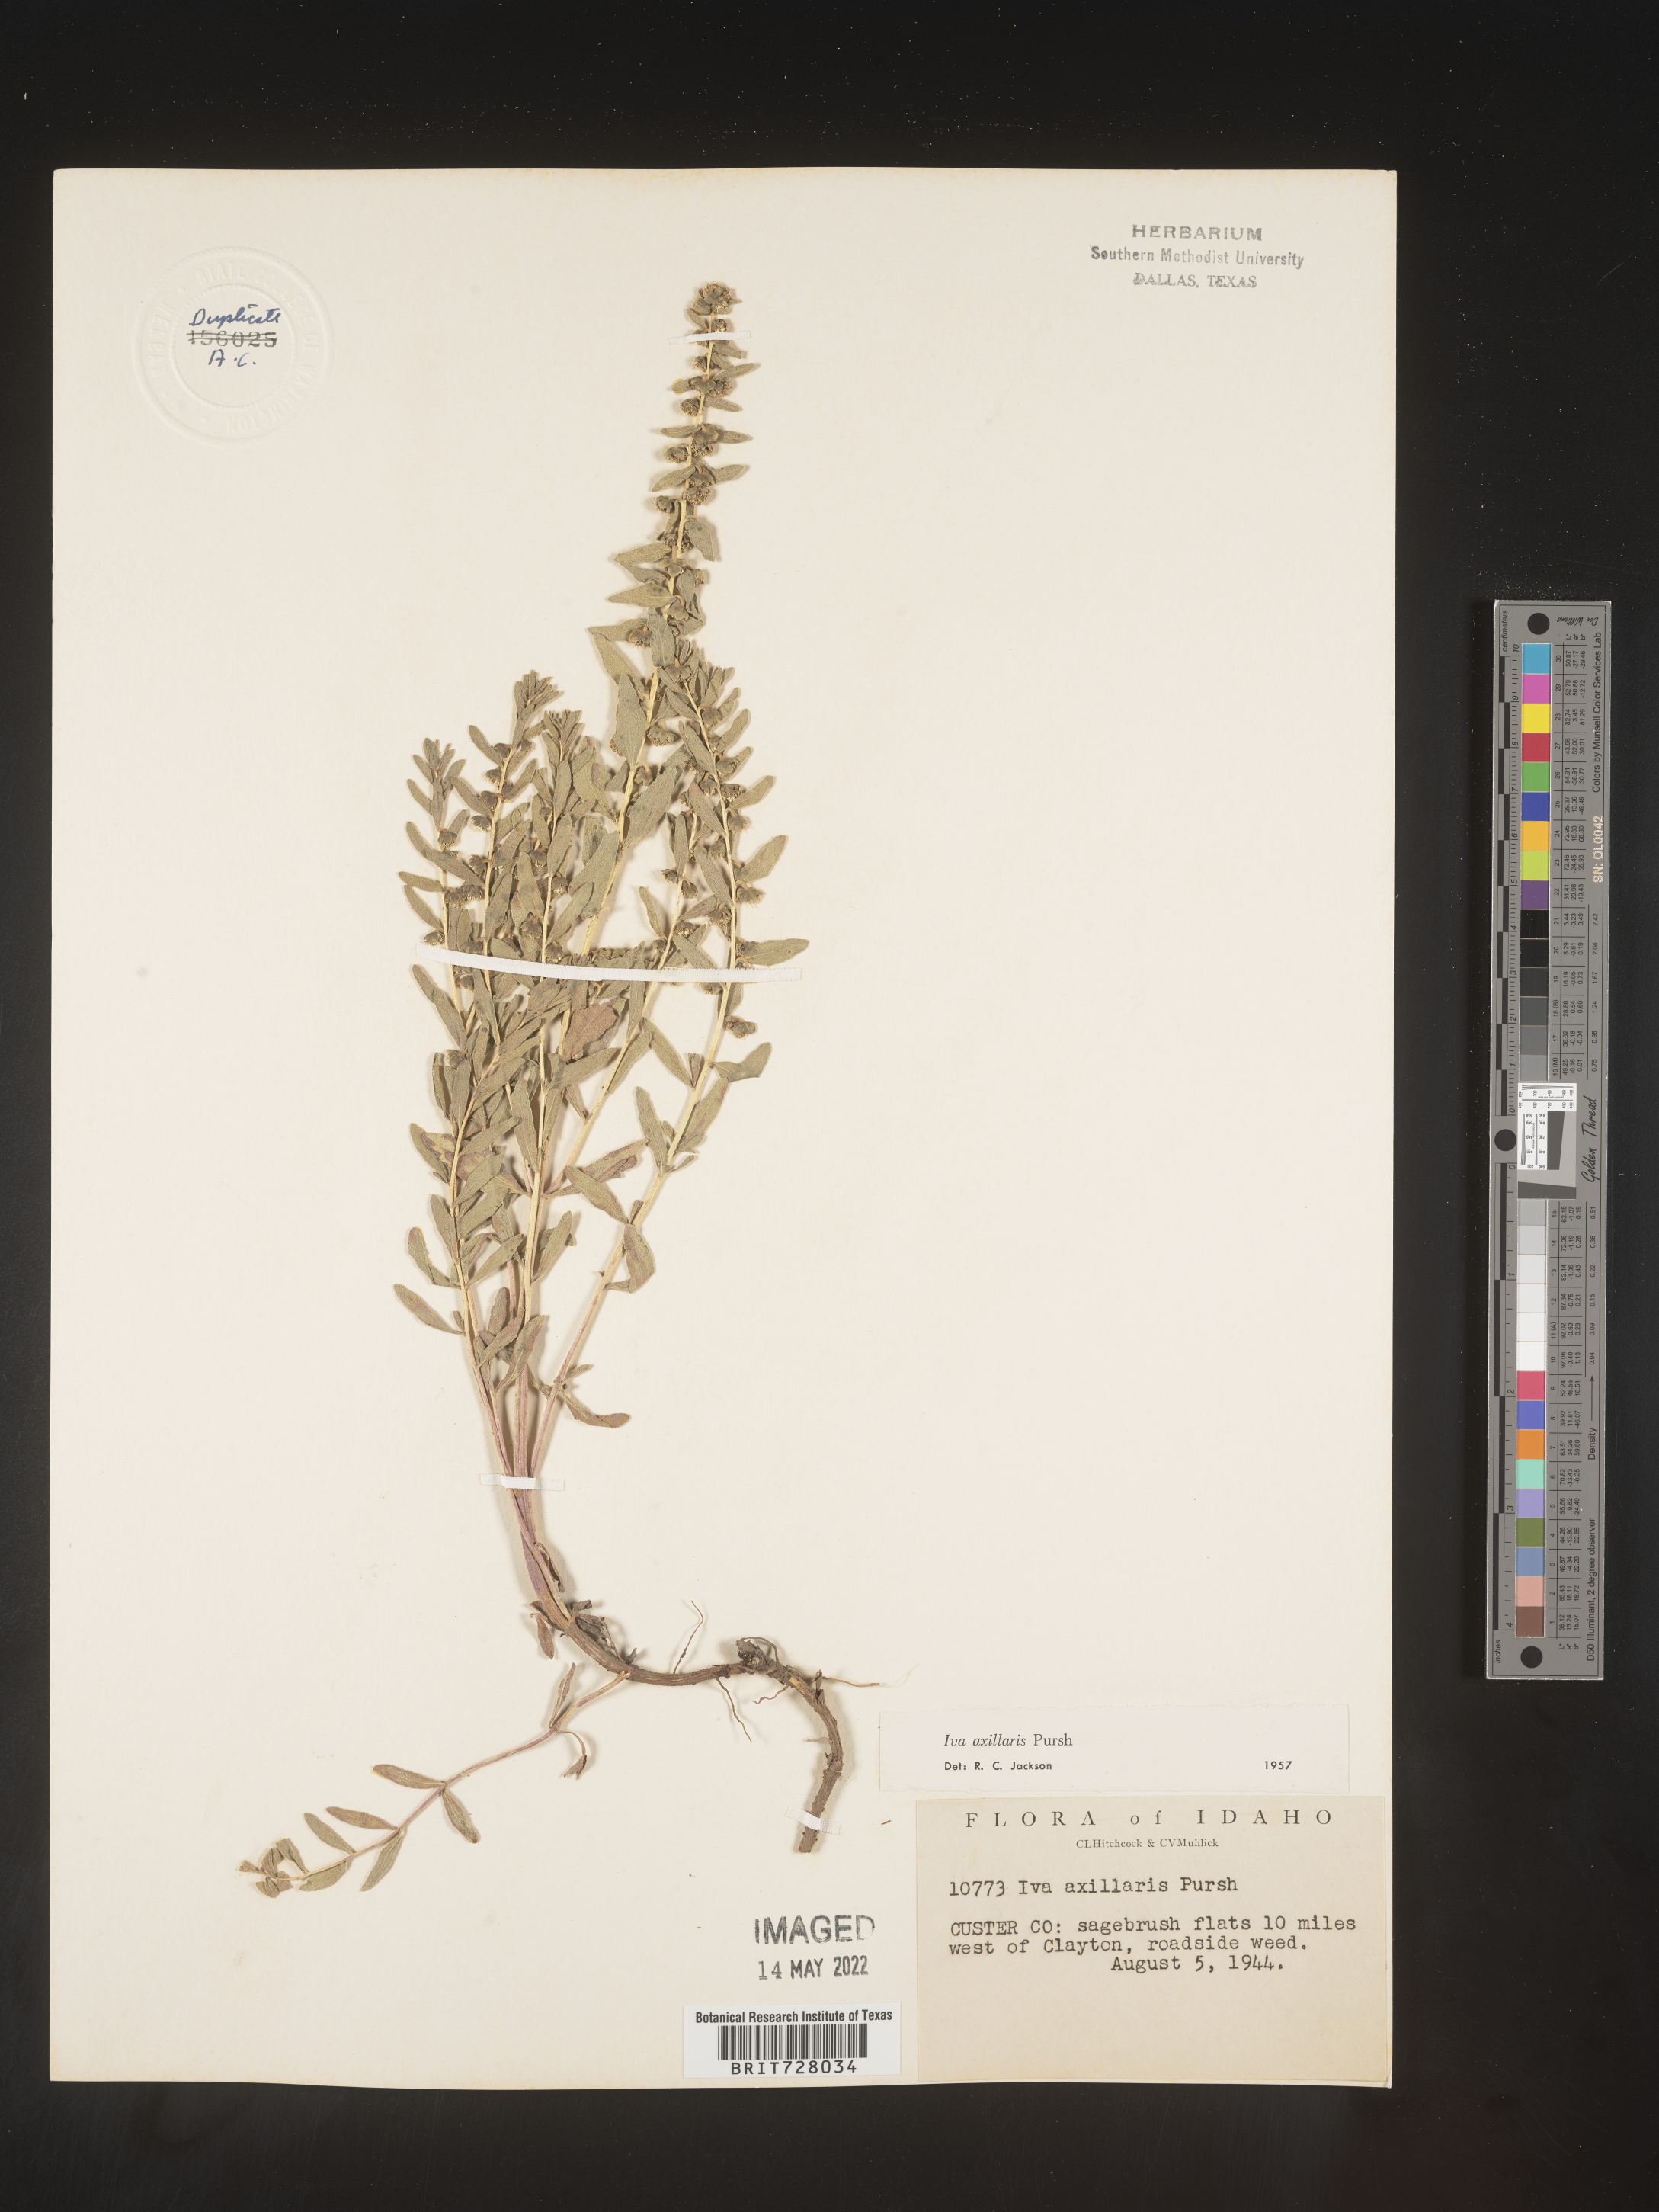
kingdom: Plantae
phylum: Tracheophyta
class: Magnoliopsida
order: Asterales
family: Asteraceae
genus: Iva
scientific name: Iva axillaris
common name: Poverty sumpweed
